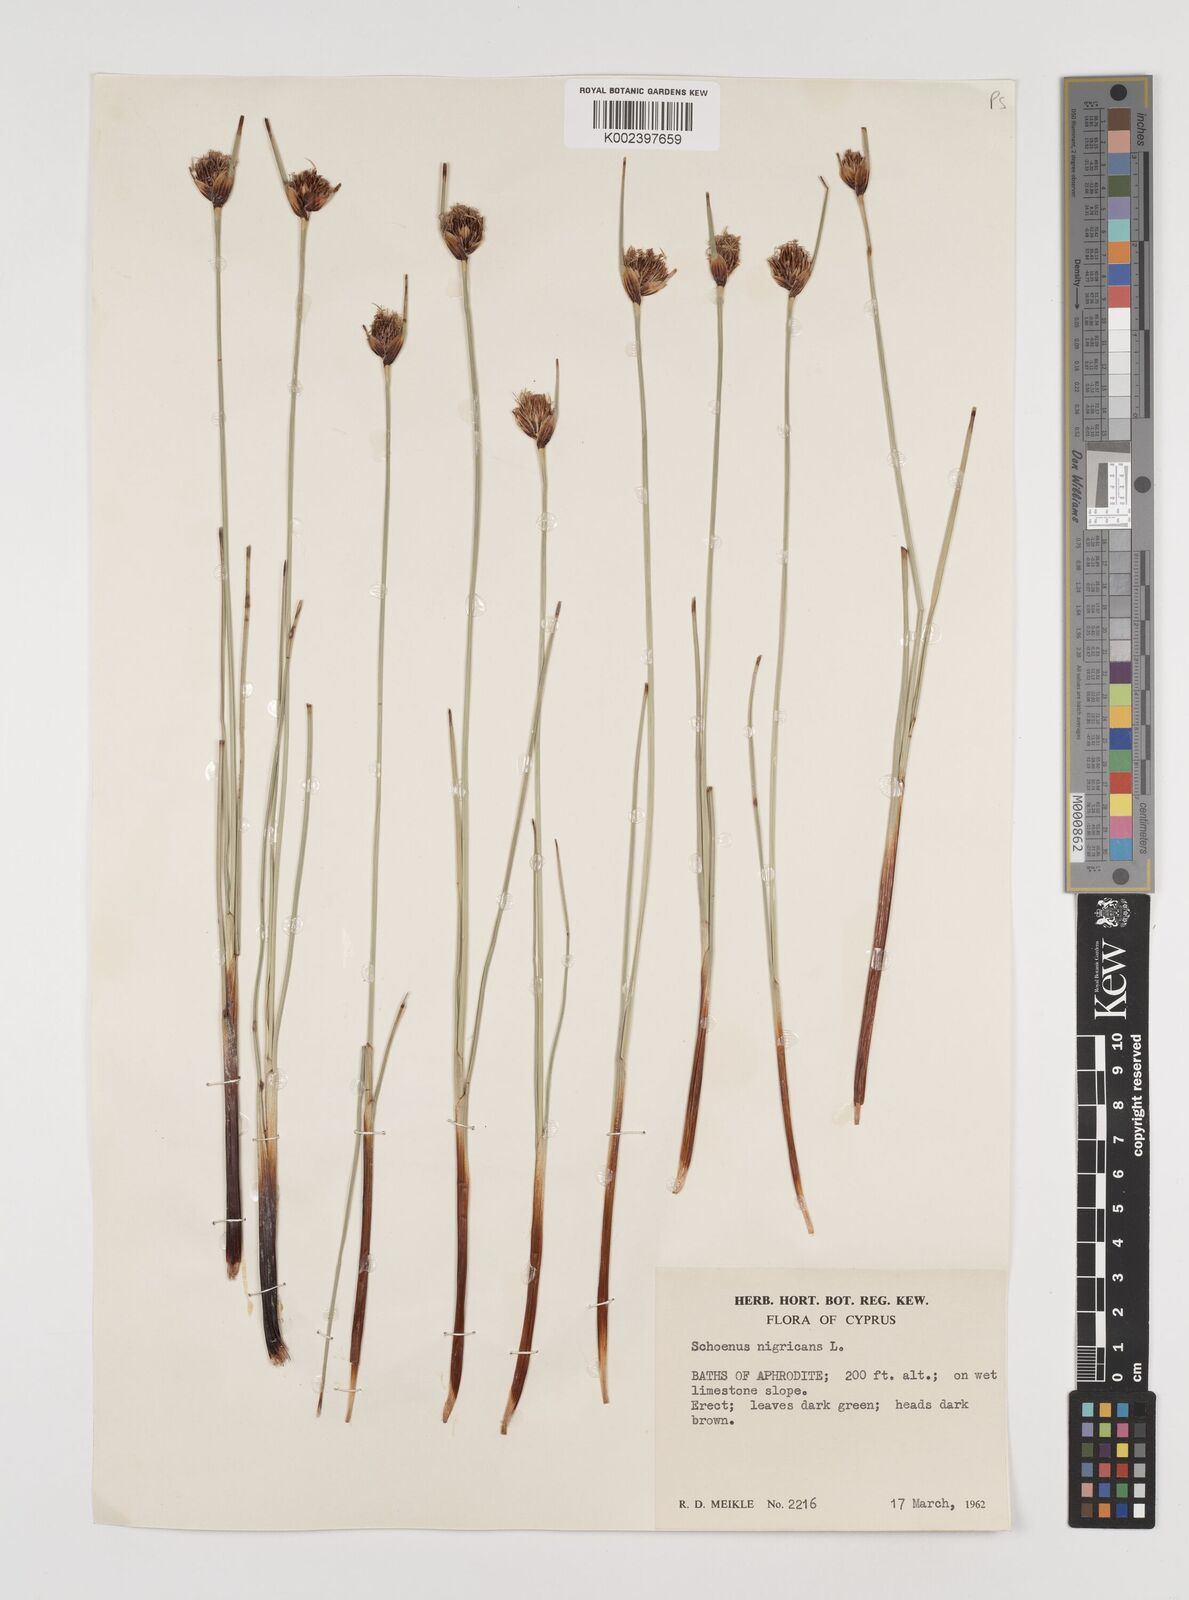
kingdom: Plantae
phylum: Tracheophyta
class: Liliopsida
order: Poales
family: Cyperaceae
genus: Schoenus
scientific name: Schoenus nigricans
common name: Black bog-rush
